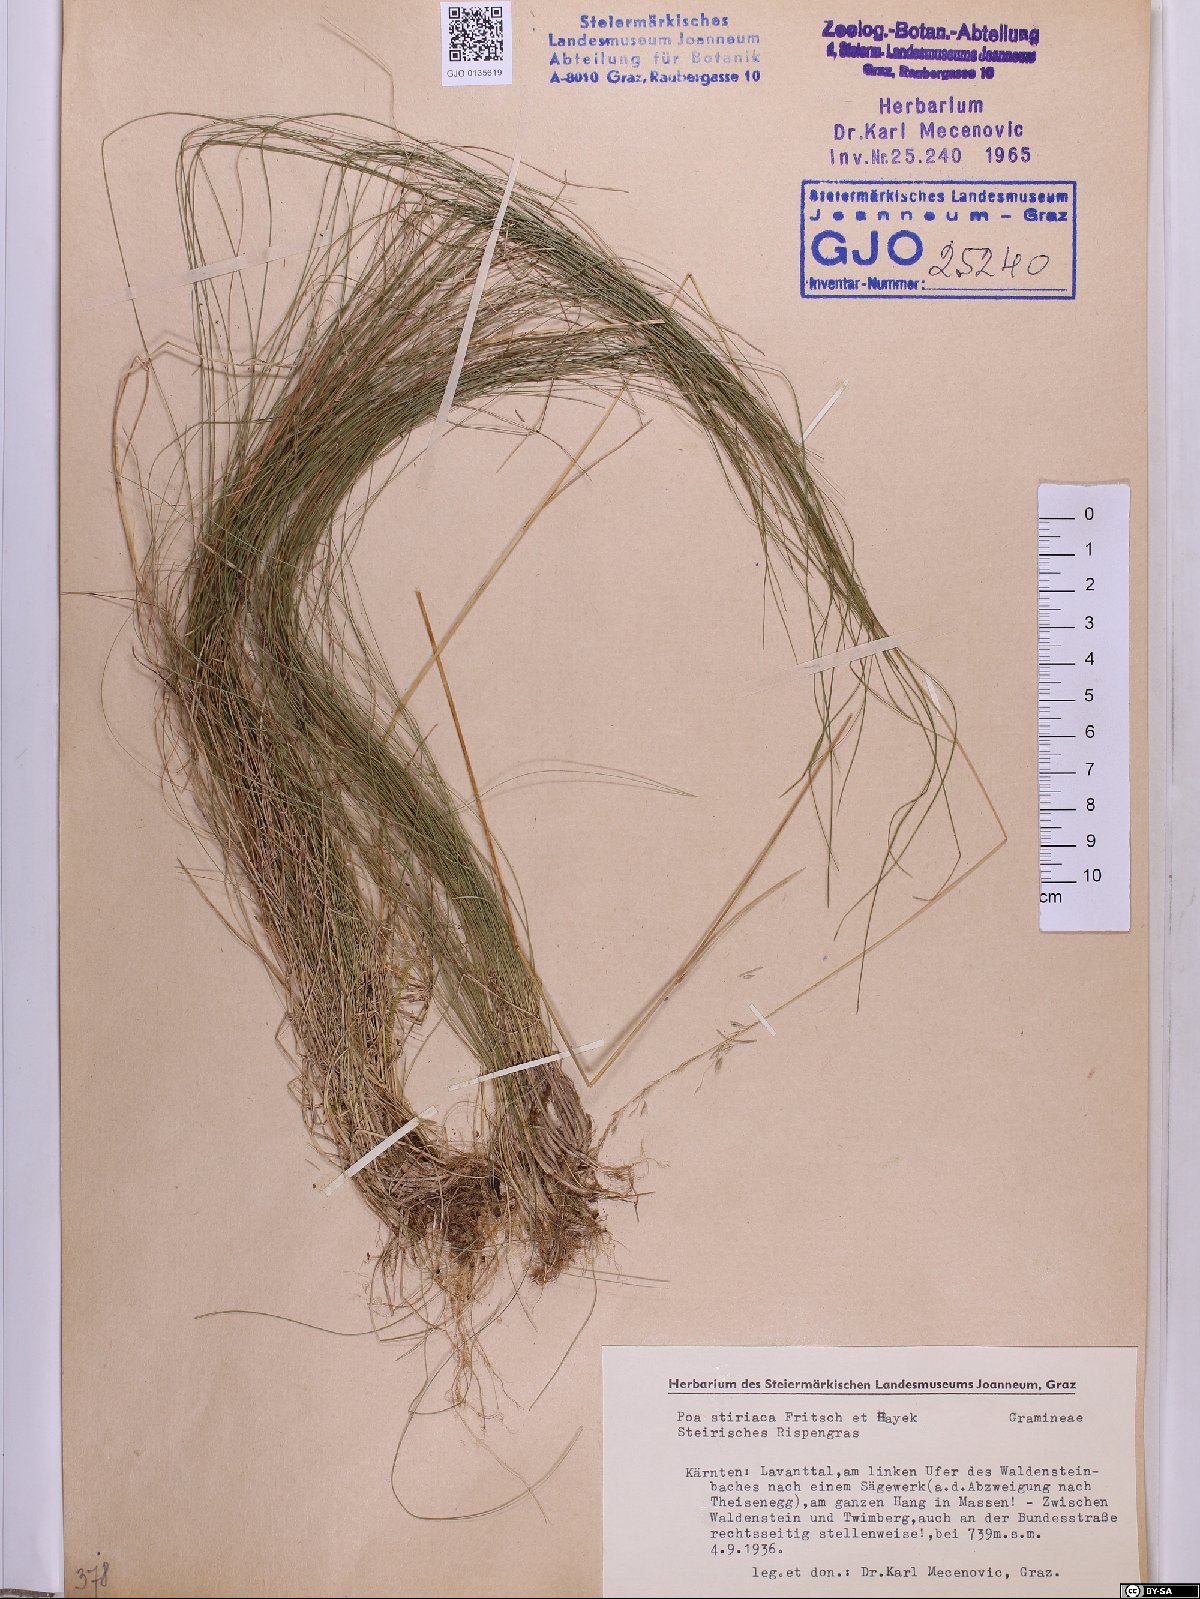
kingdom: Plantae
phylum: Tracheophyta
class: Liliopsida
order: Poales
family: Poaceae
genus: Poa
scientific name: Poa stiriaca
